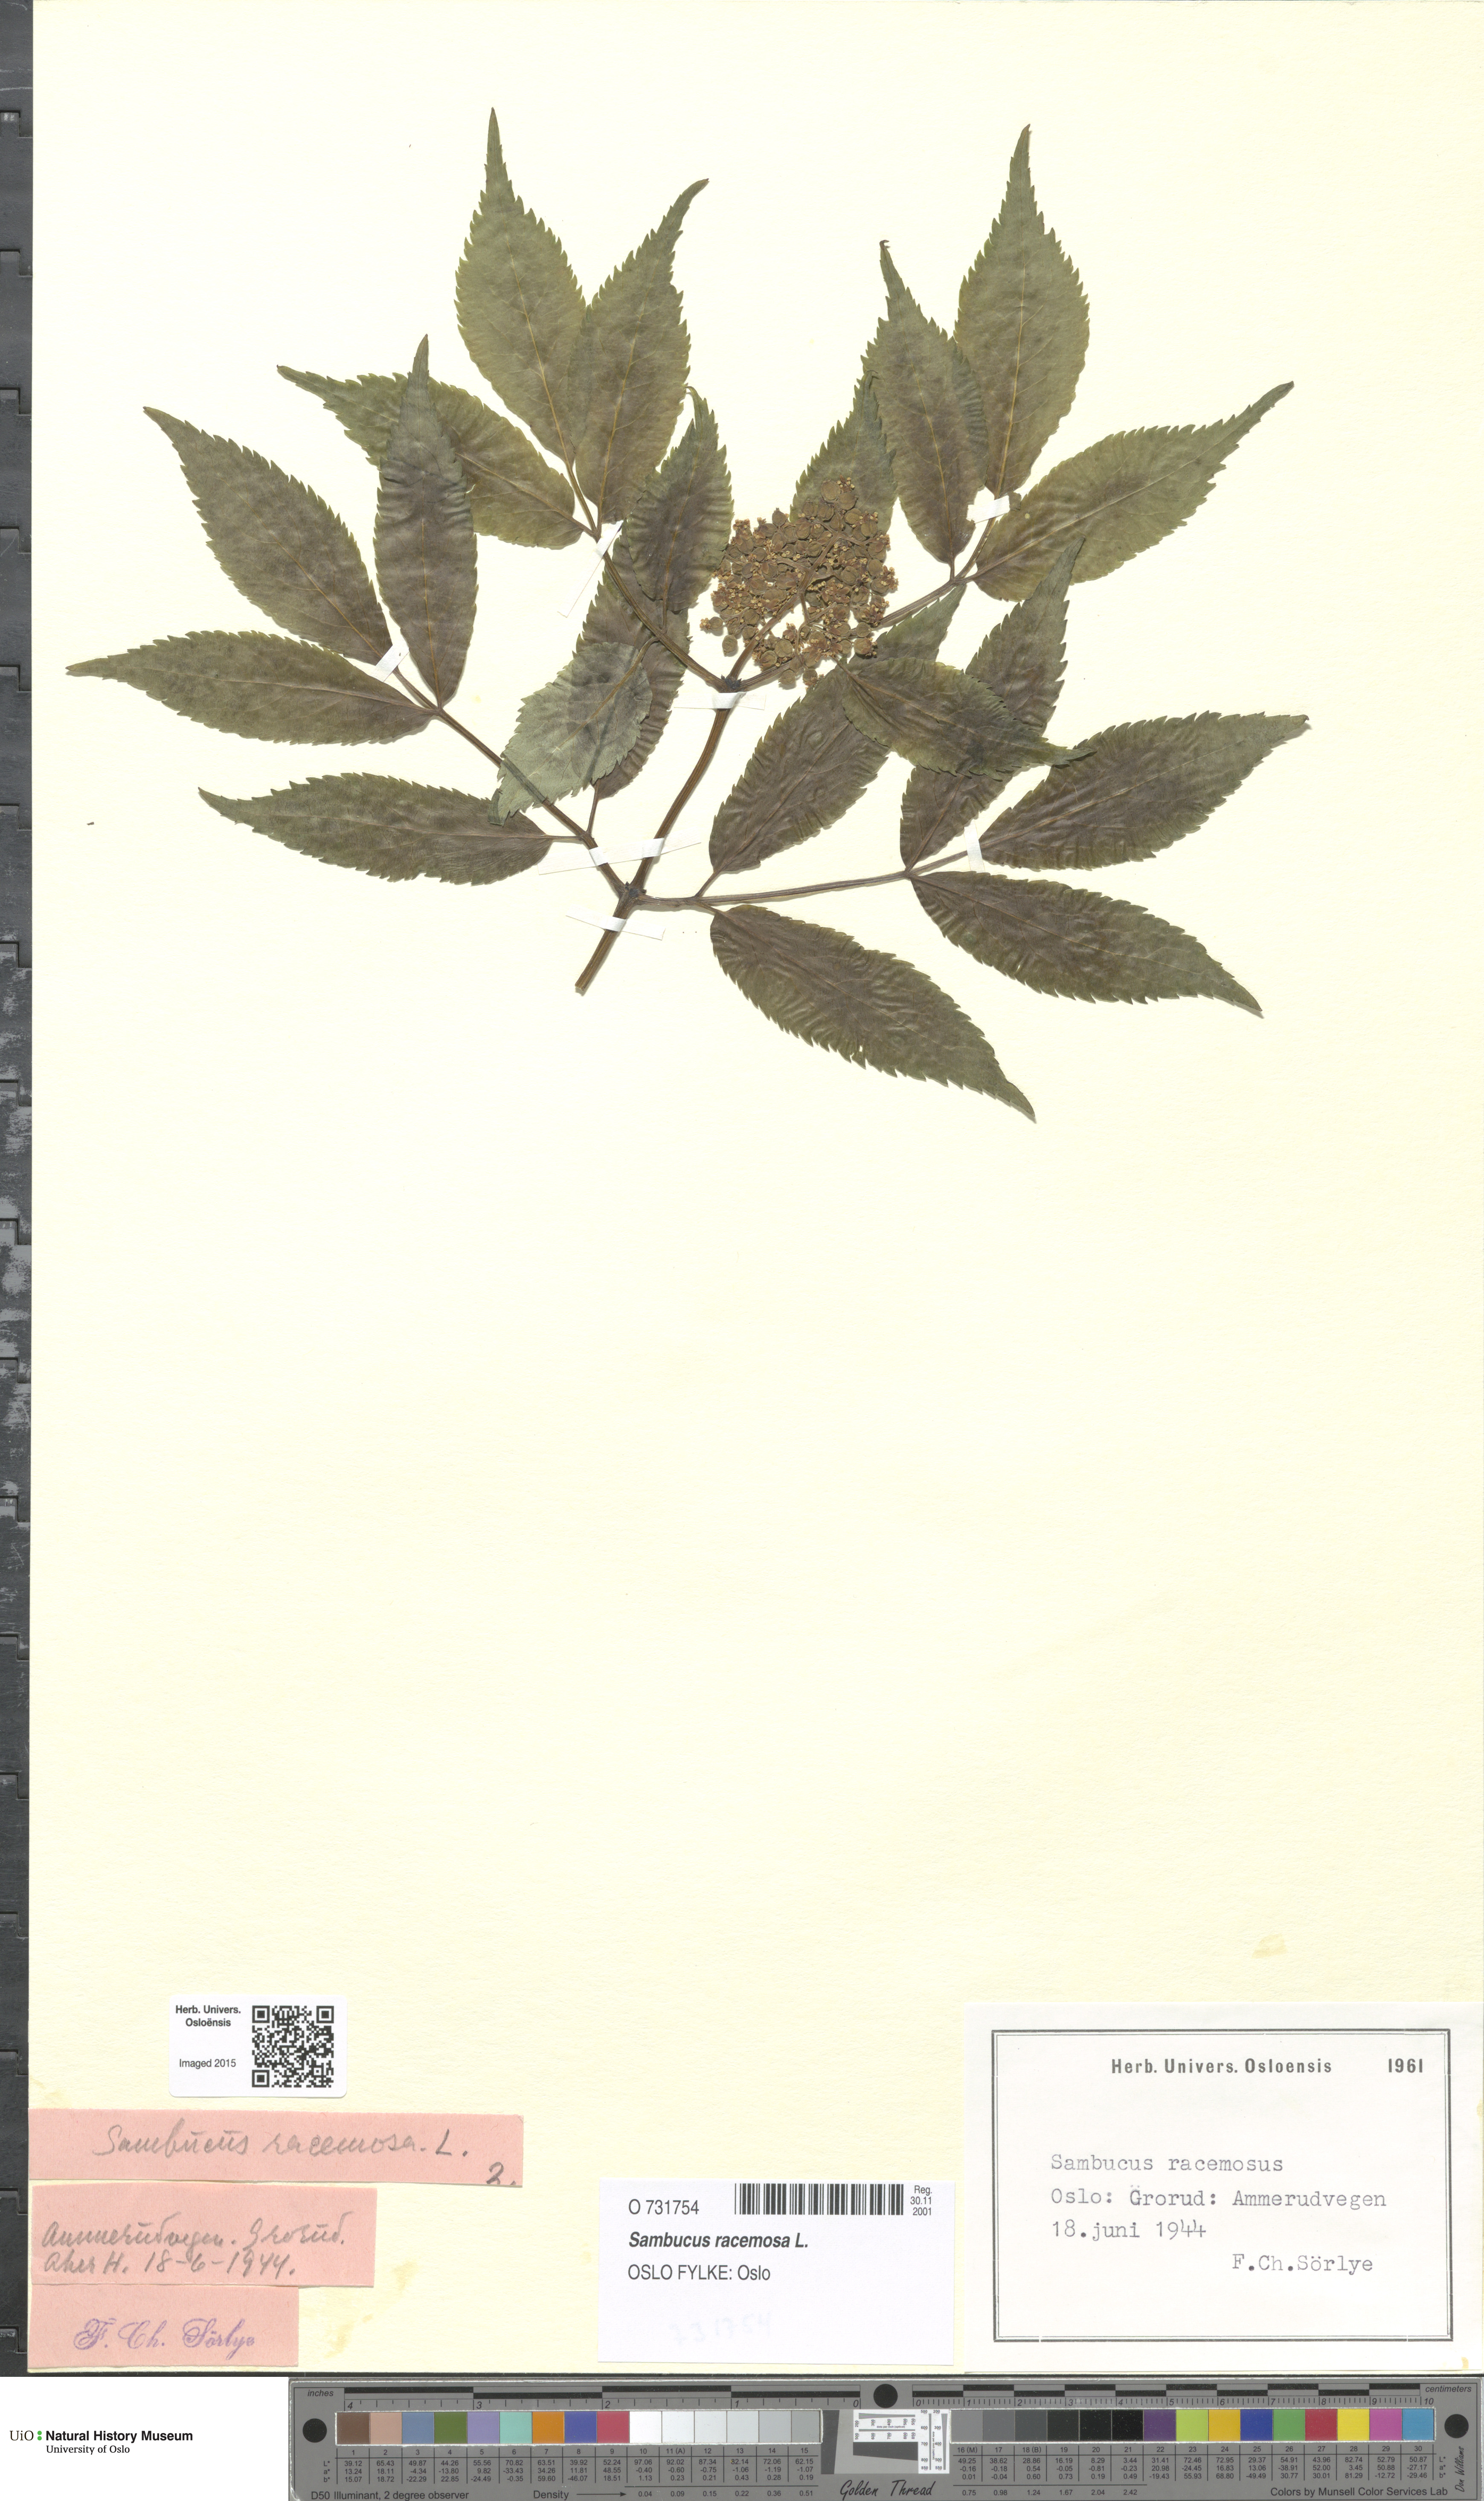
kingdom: Plantae
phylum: Tracheophyta
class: Magnoliopsida
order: Dipsacales
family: Viburnaceae
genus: Sambucus
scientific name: Sambucus racemosa
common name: Red-berried elder
